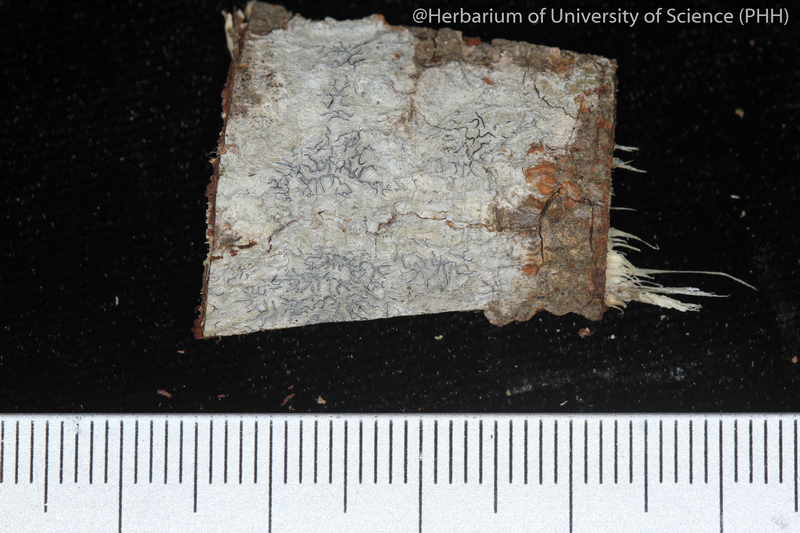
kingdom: Fungi
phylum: Ascomycota
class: Lecanoromycetes
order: Ostropales
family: Graphidaceae
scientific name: Graphidaceae
